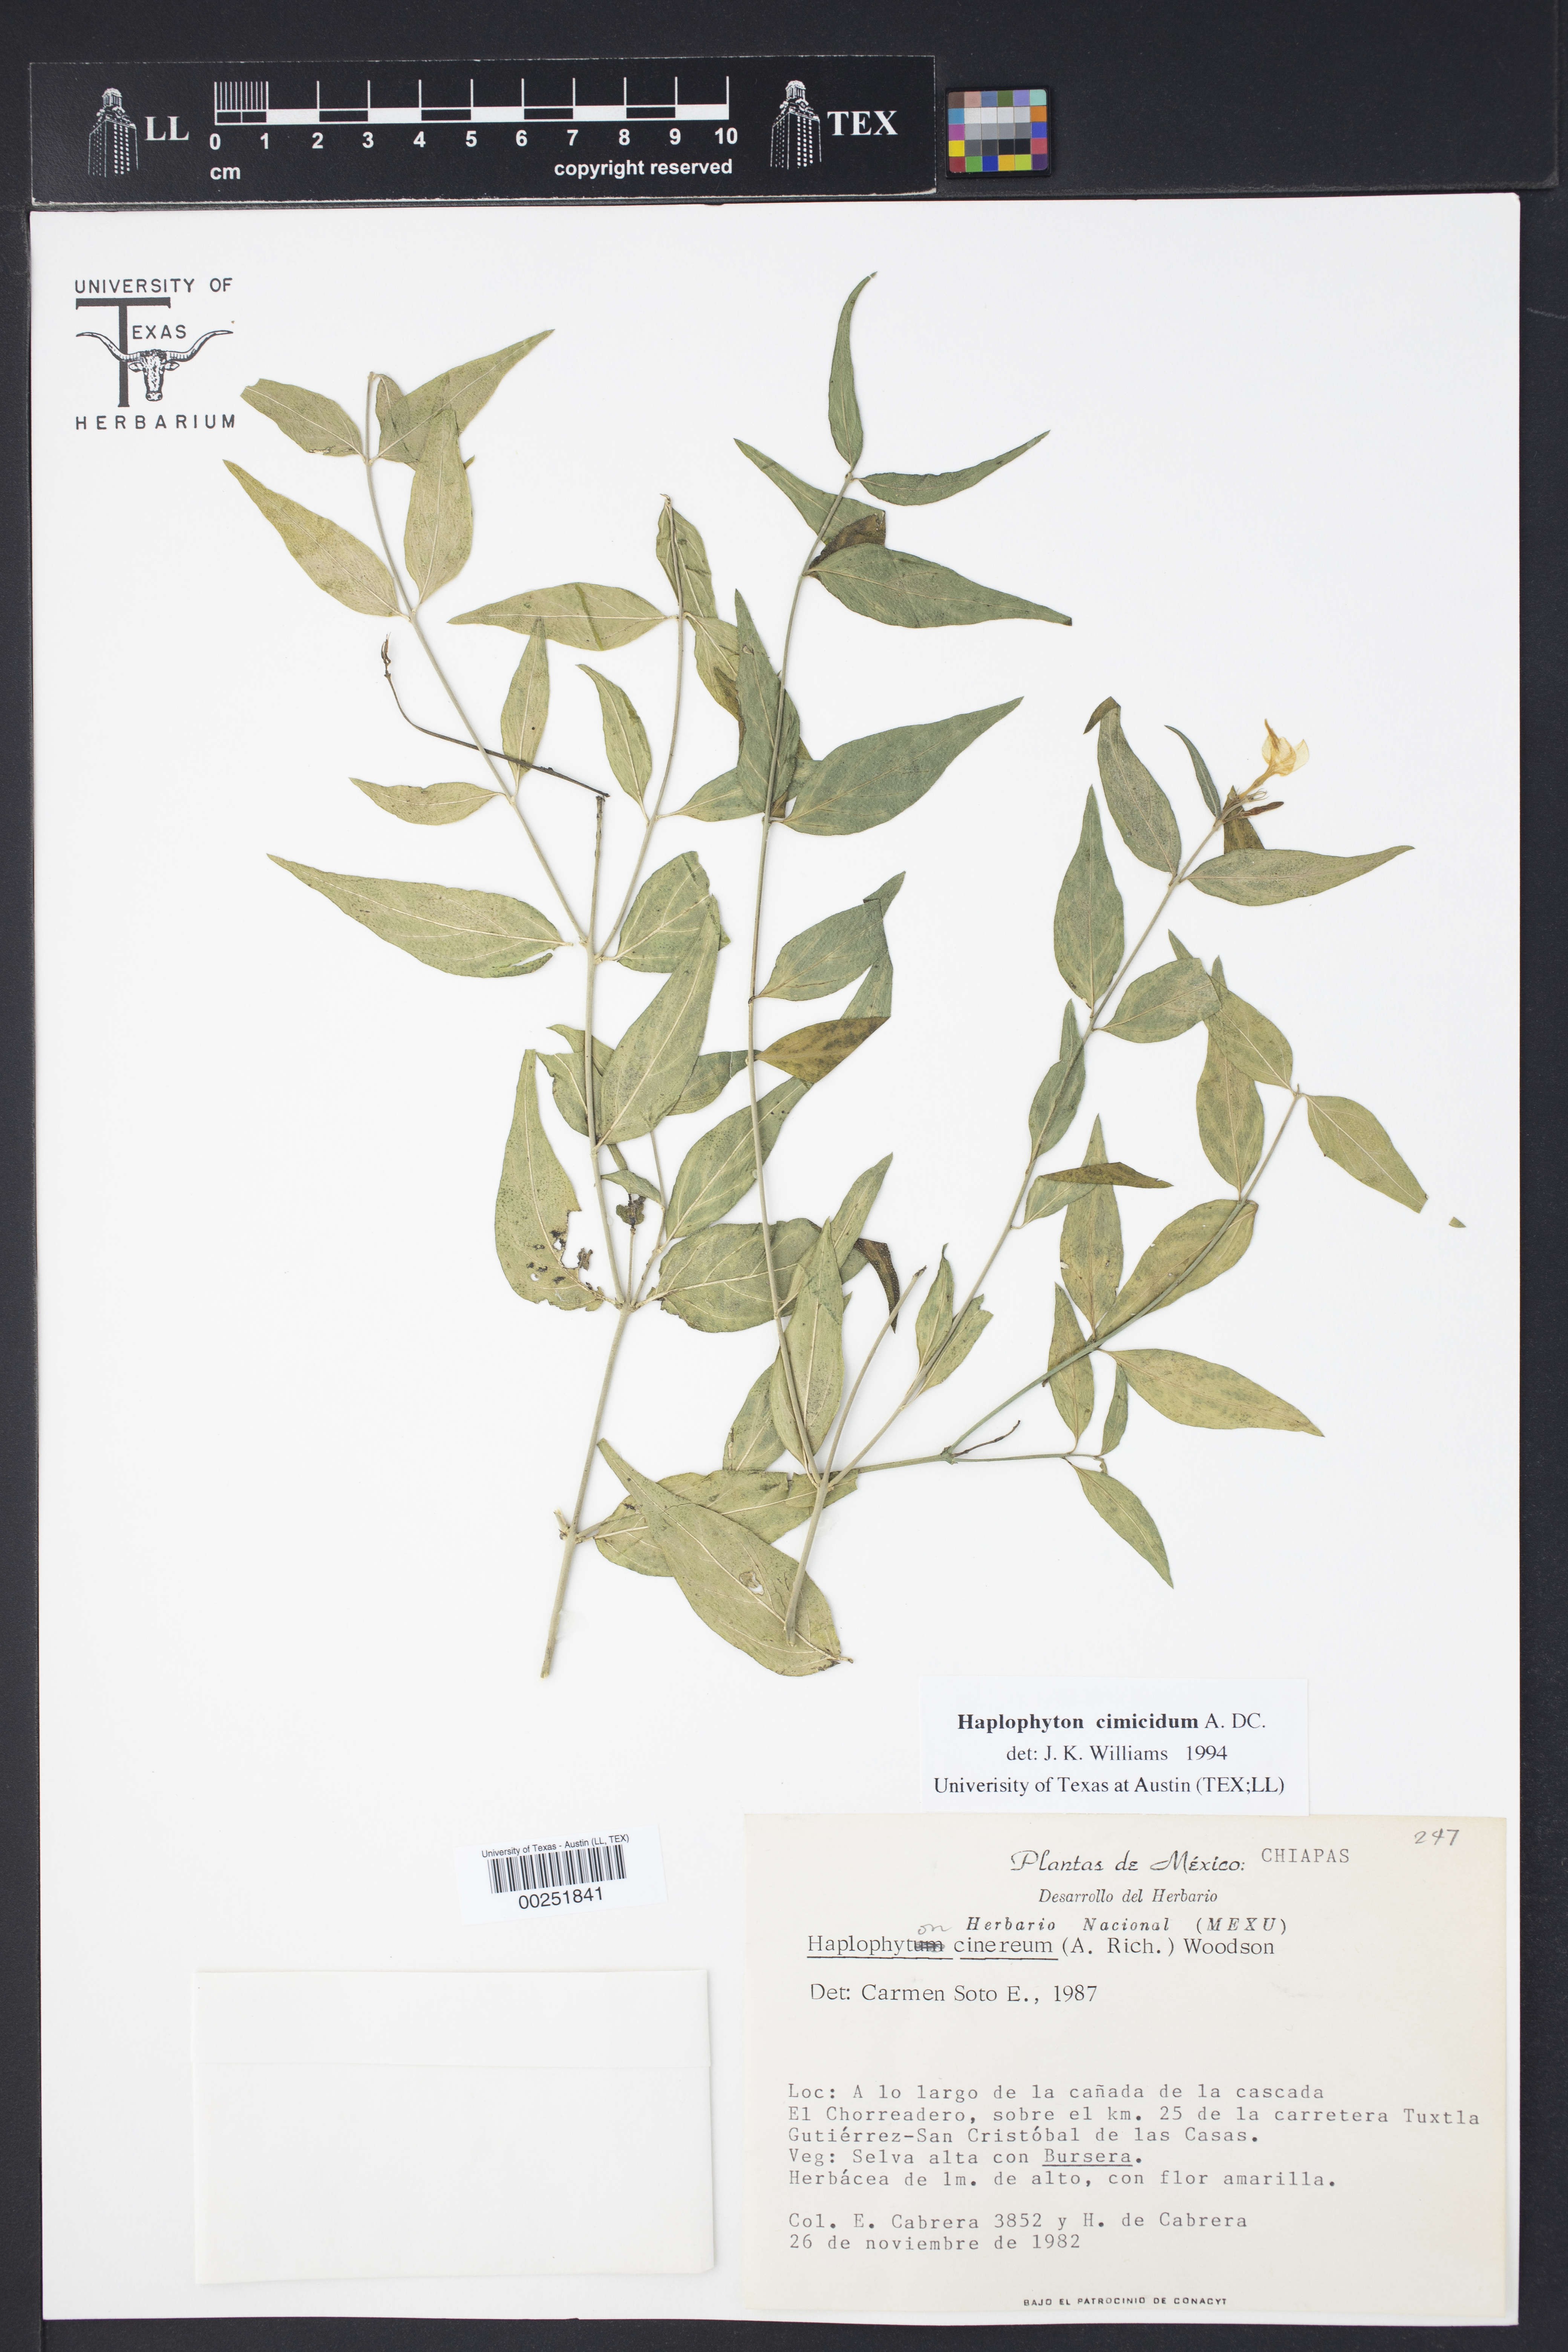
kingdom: Plantae
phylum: Tracheophyta
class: Magnoliopsida
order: Gentianales
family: Apocynaceae
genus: Haplophyton
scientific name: Haplophyton cimicidum
